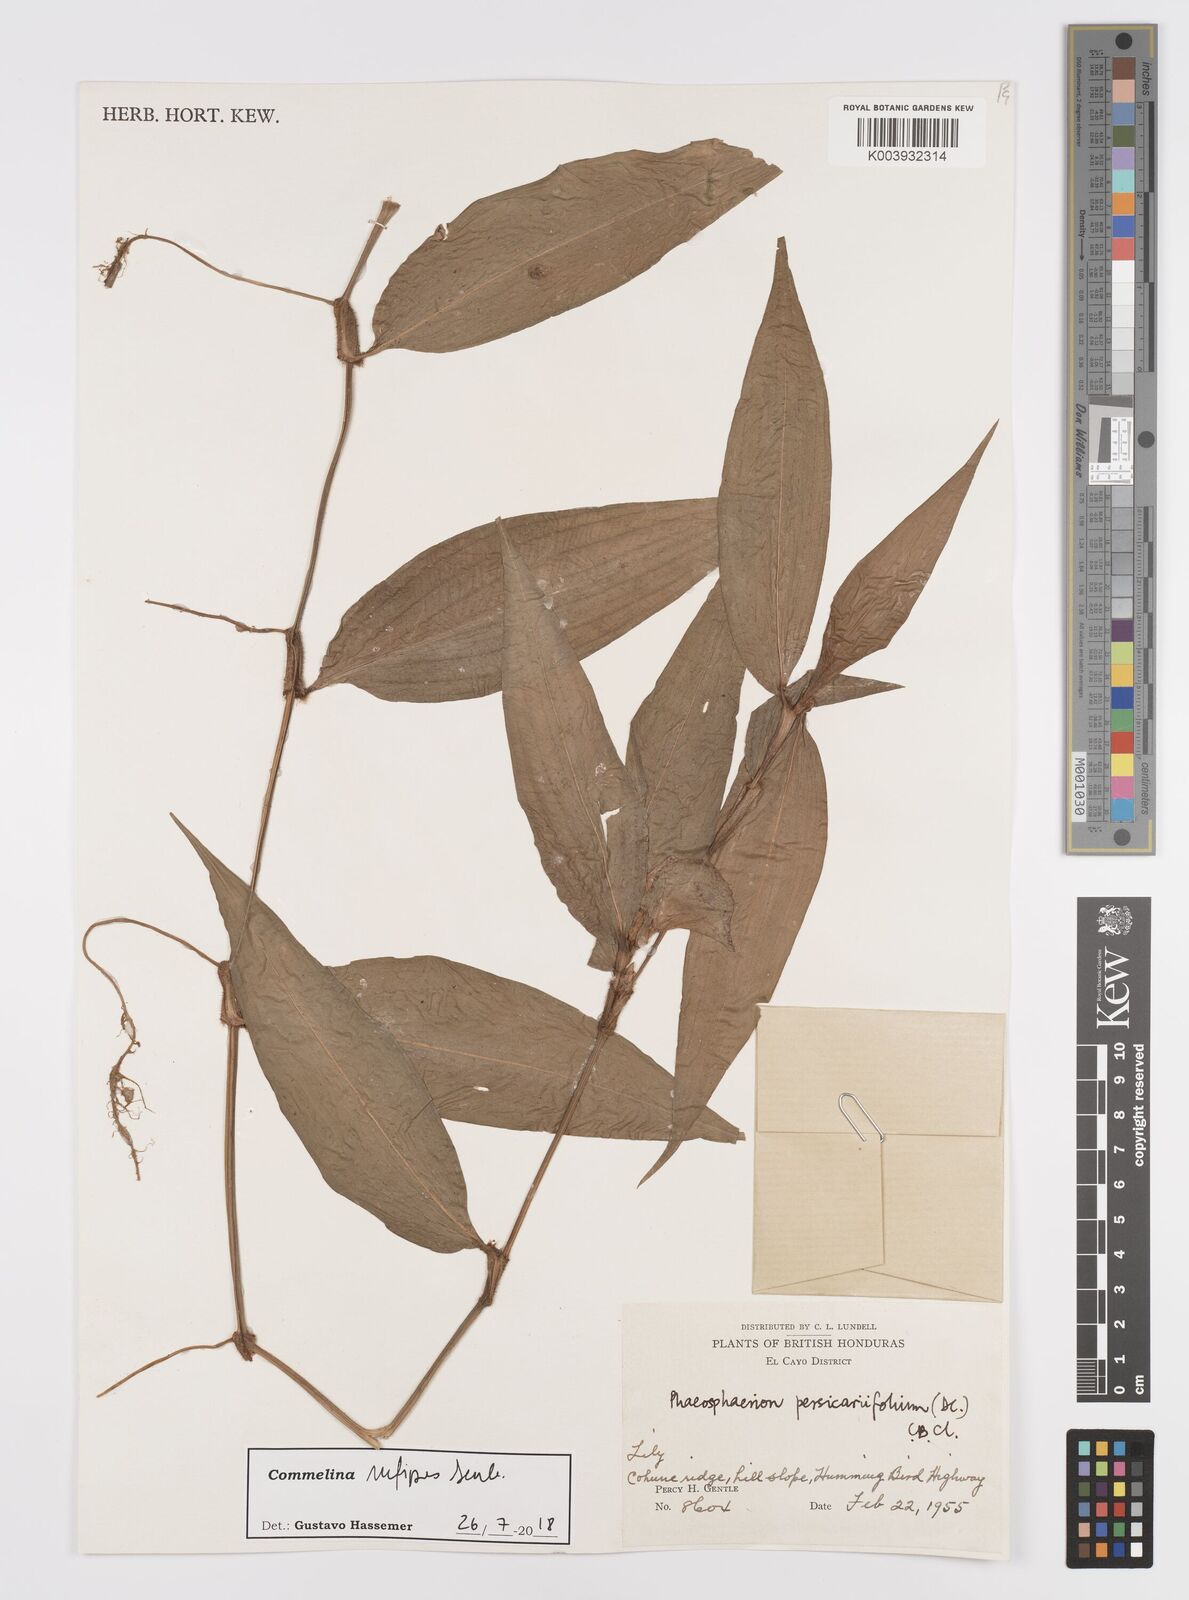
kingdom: Plantae
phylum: Tracheophyta
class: Liliopsida
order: Commelinales
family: Commelinaceae
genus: Commelina
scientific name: Commelina rufipes
